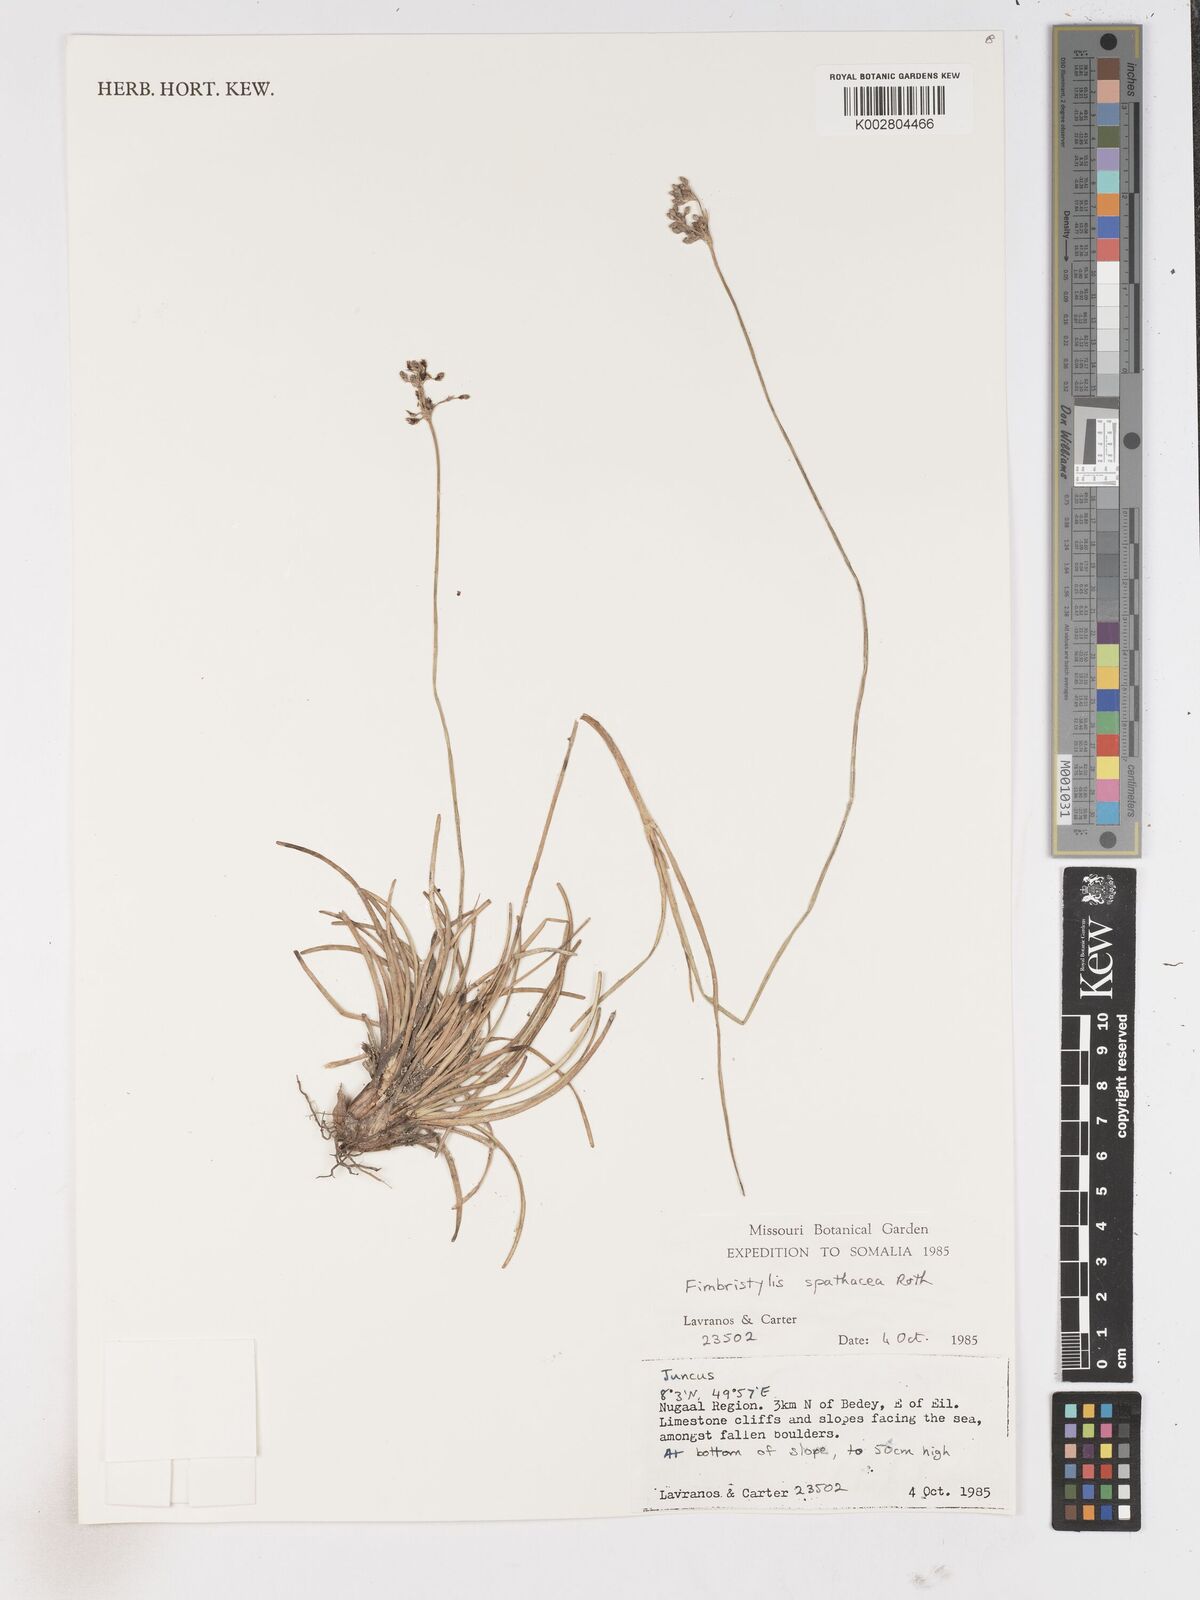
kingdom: Plantae
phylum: Tracheophyta
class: Liliopsida
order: Poales
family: Cyperaceae
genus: Fimbristylis
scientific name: Fimbristylis cymosa
